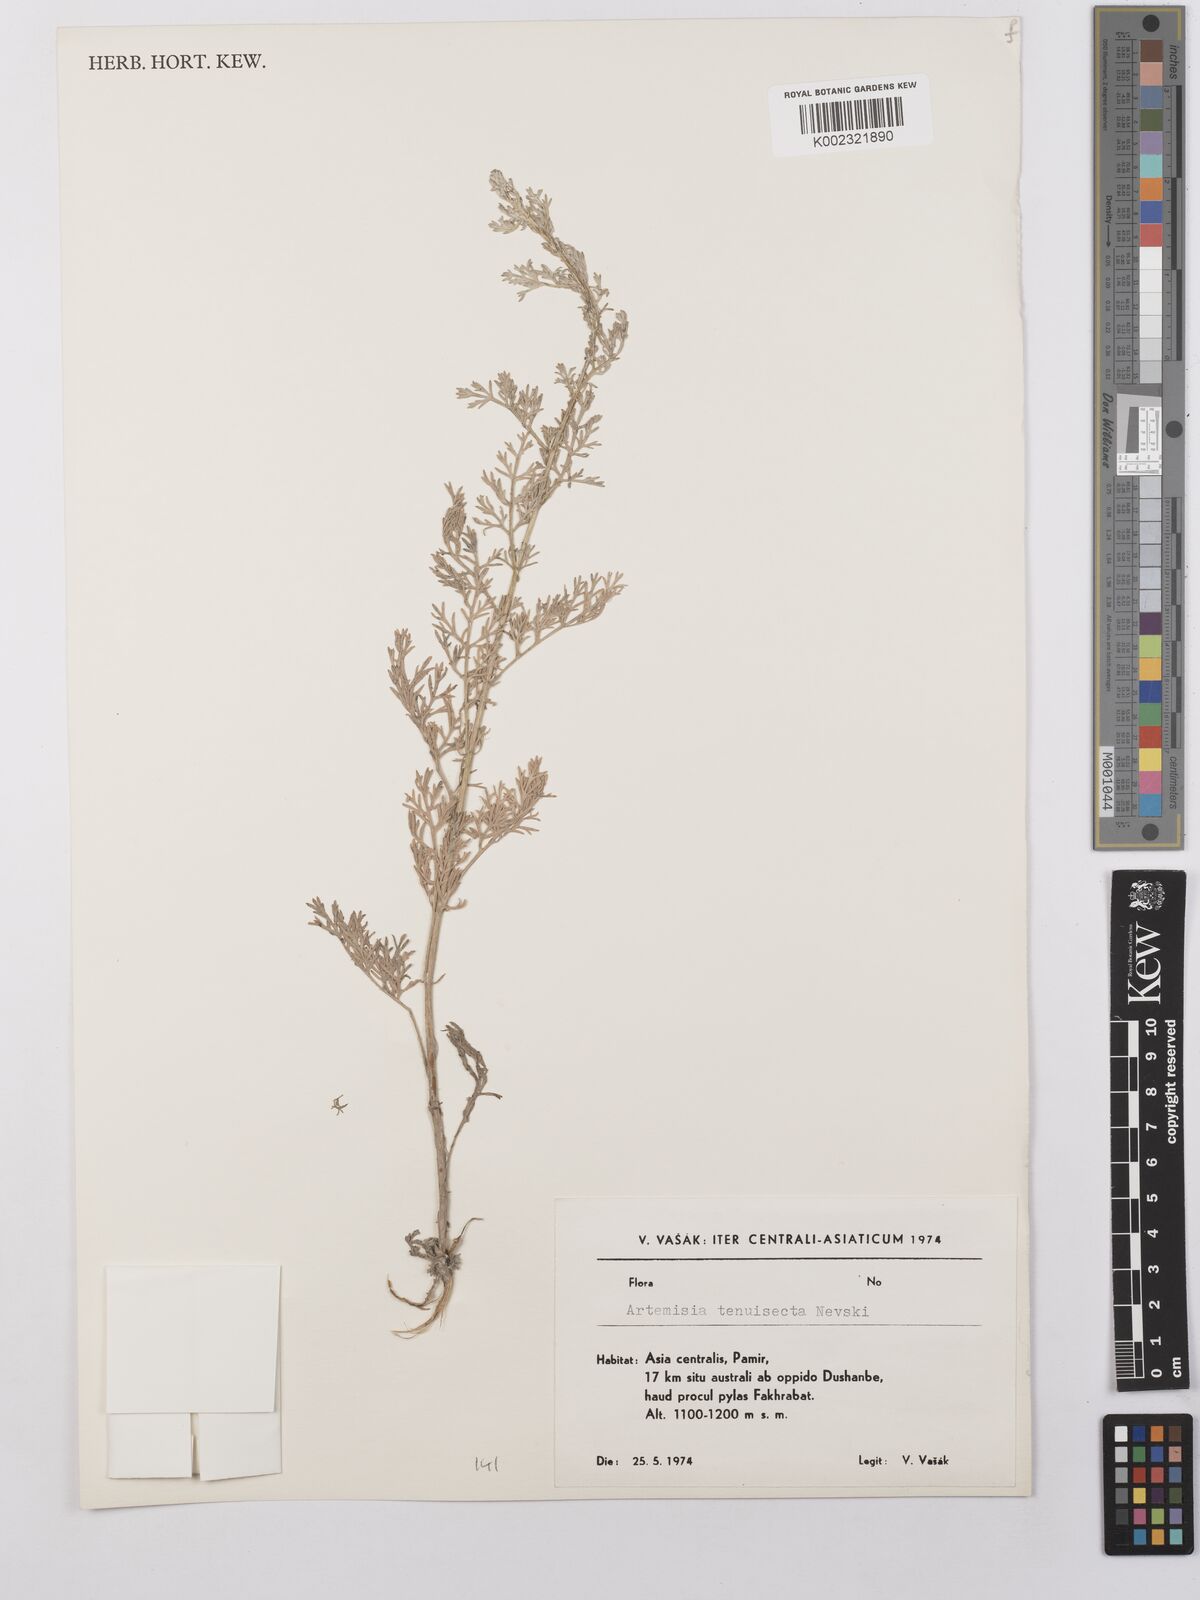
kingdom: Plantae
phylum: Tracheophyta
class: Magnoliopsida
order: Asterales
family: Asteraceae
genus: Artemisia
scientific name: Artemisia tenuisecta
